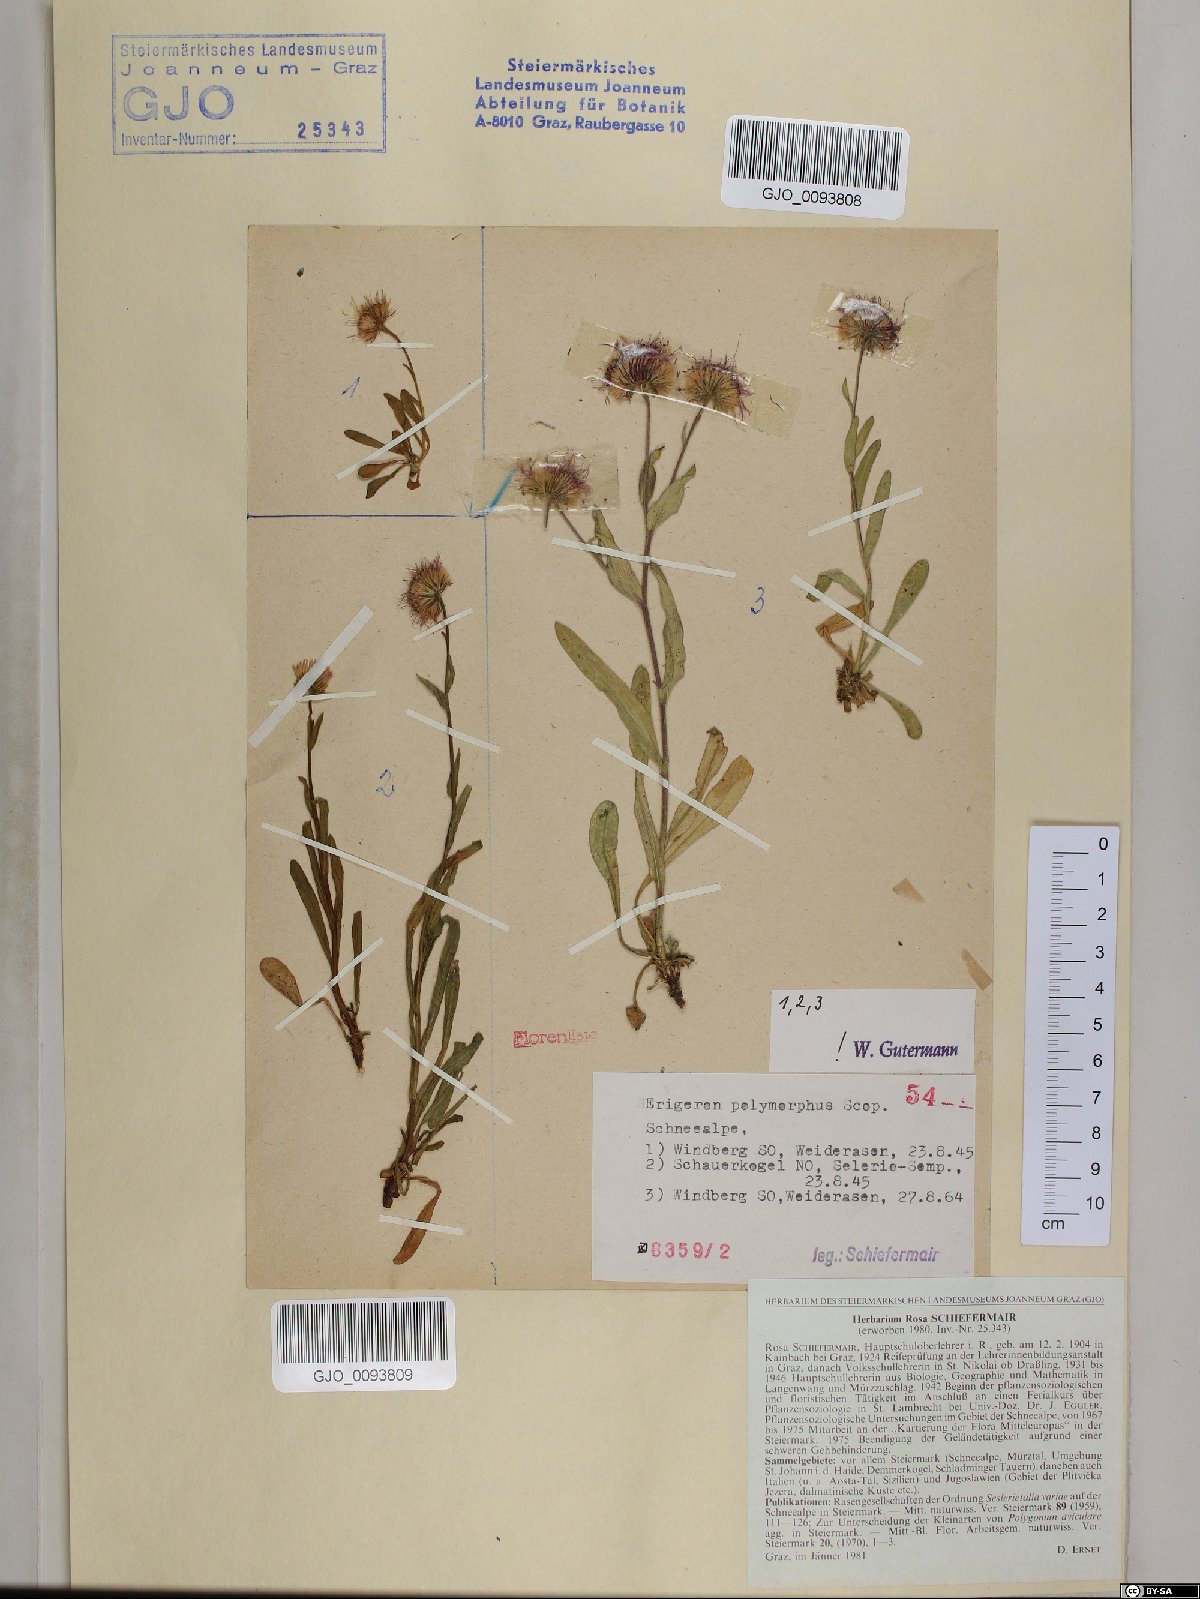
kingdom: Plantae
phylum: Tracheophyta
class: Magnoliopsida
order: Asterales
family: Asteraceae
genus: Erigeron
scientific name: Erigeron alpinus
